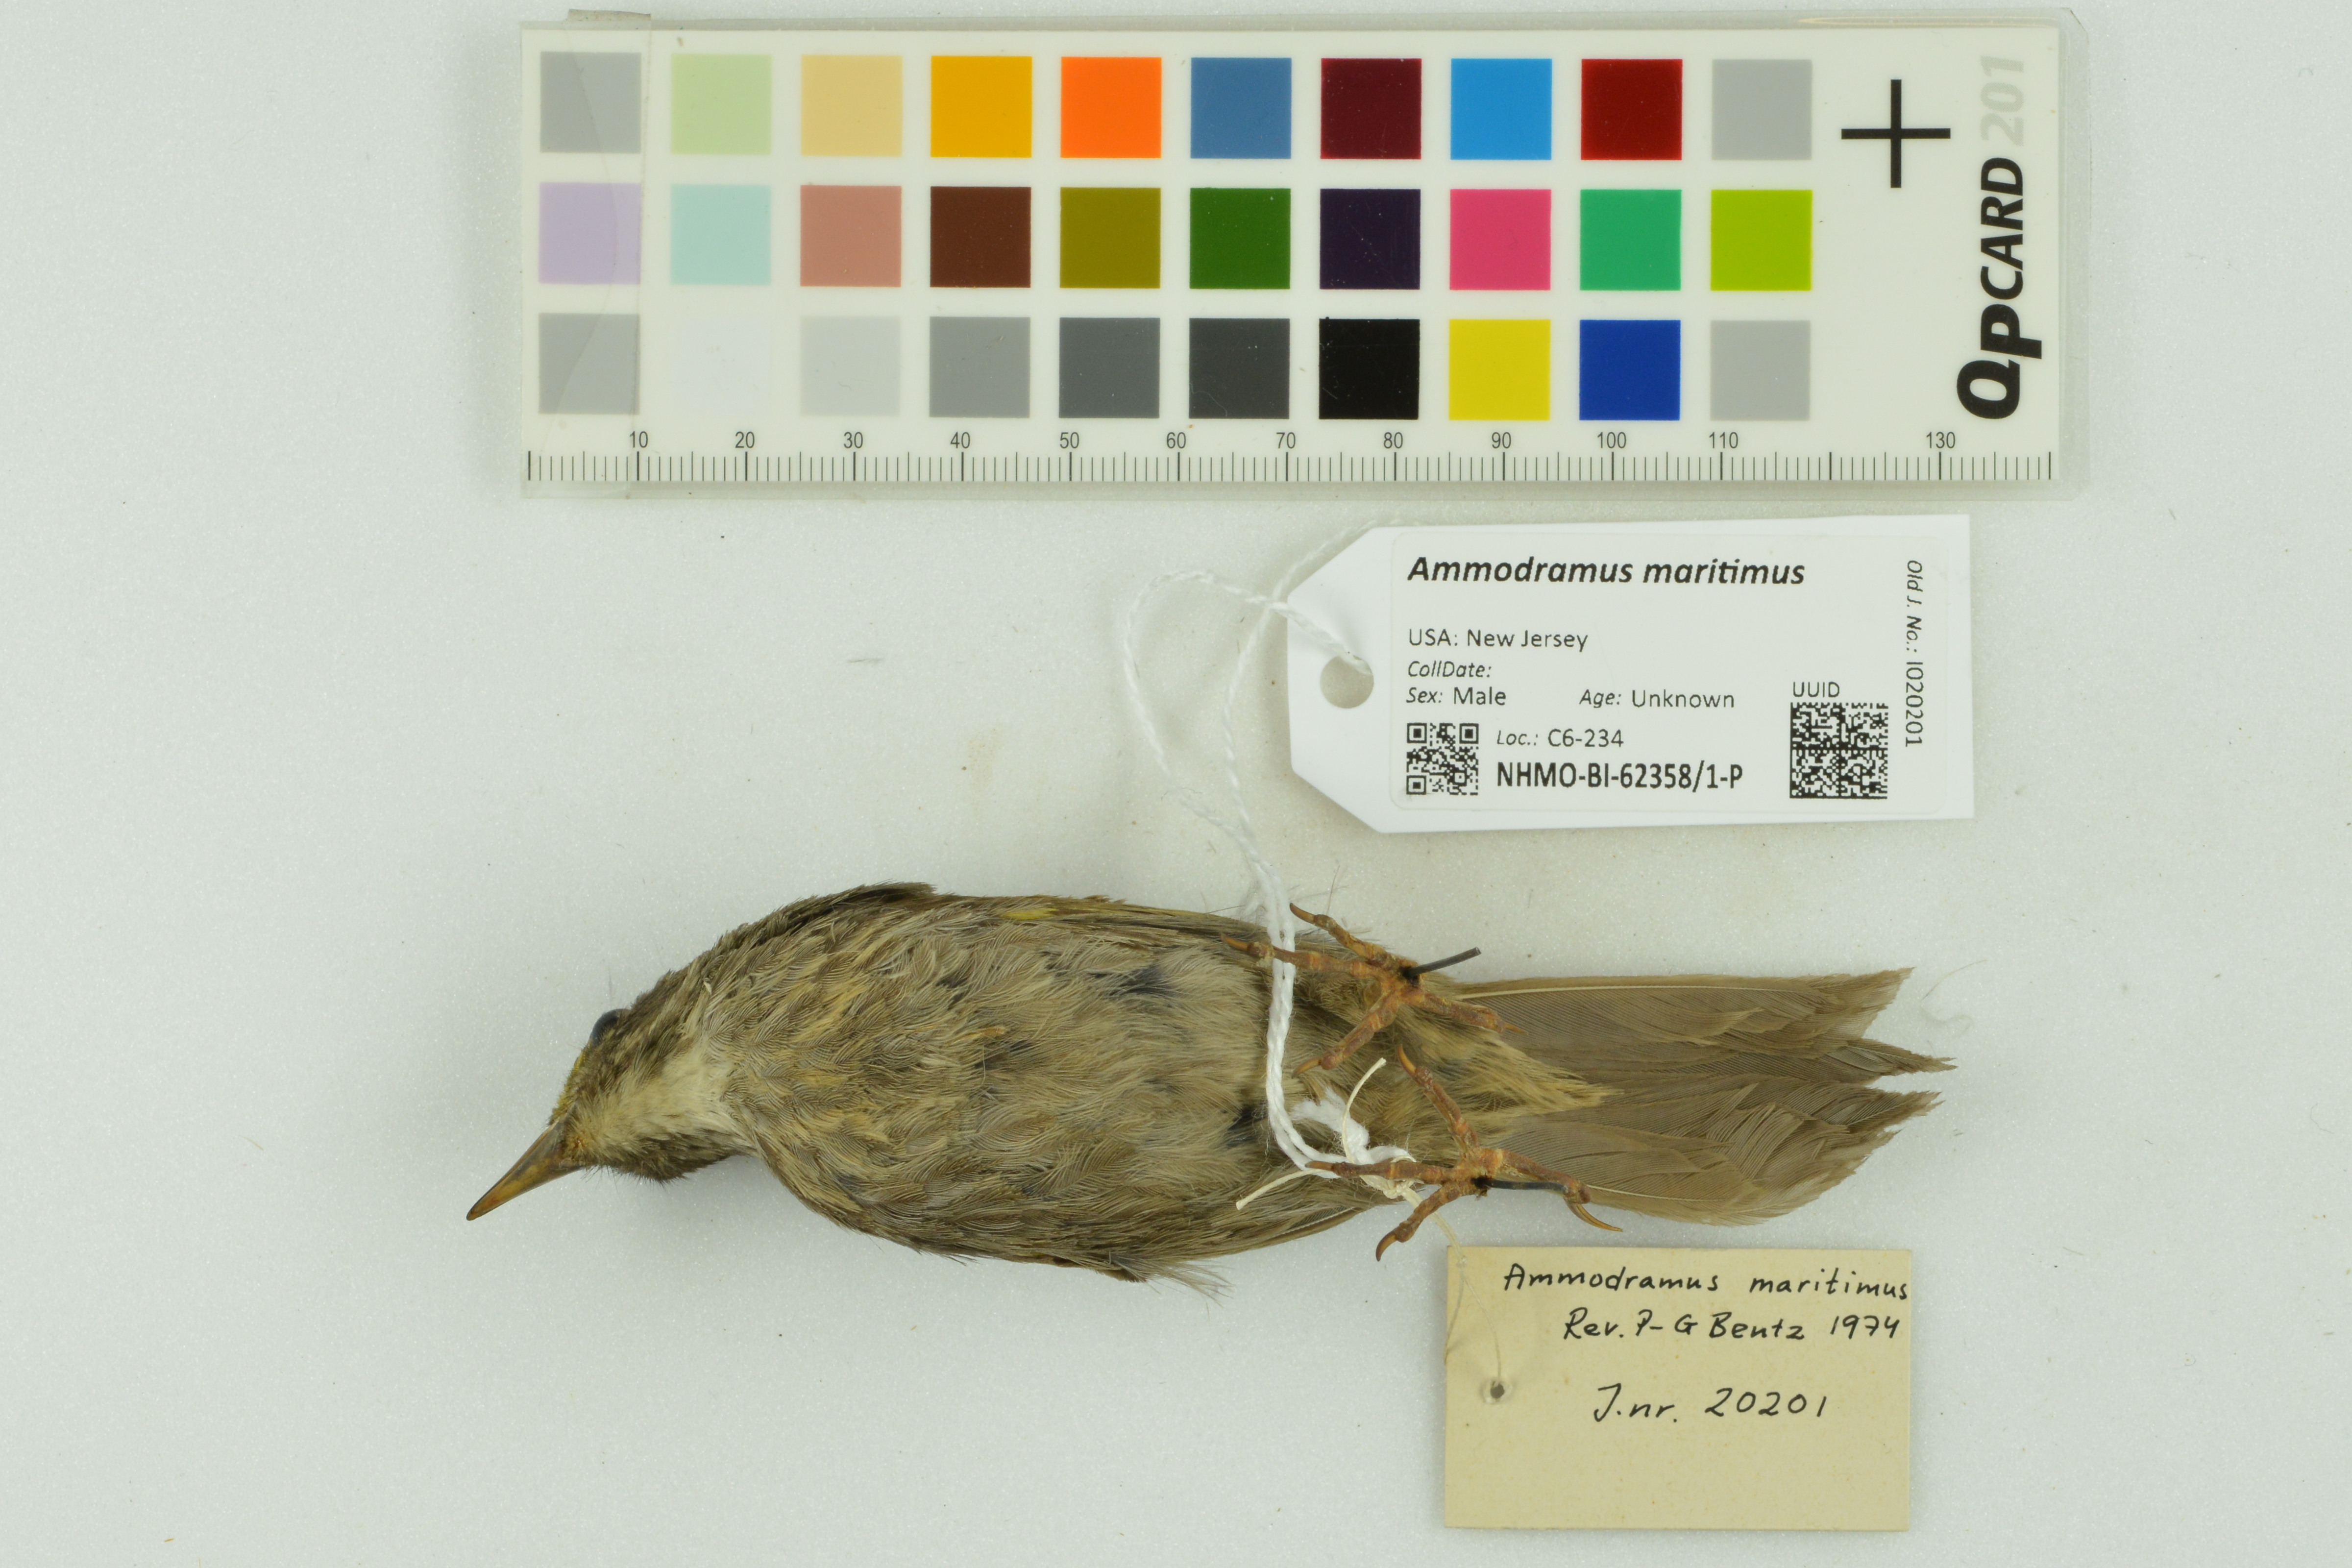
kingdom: Animalia
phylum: Chordata
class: Aves
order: Passeriformes
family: Passerellidae
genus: Ammospiza
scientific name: Ammospiza maritima
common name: Seaside sparrow
